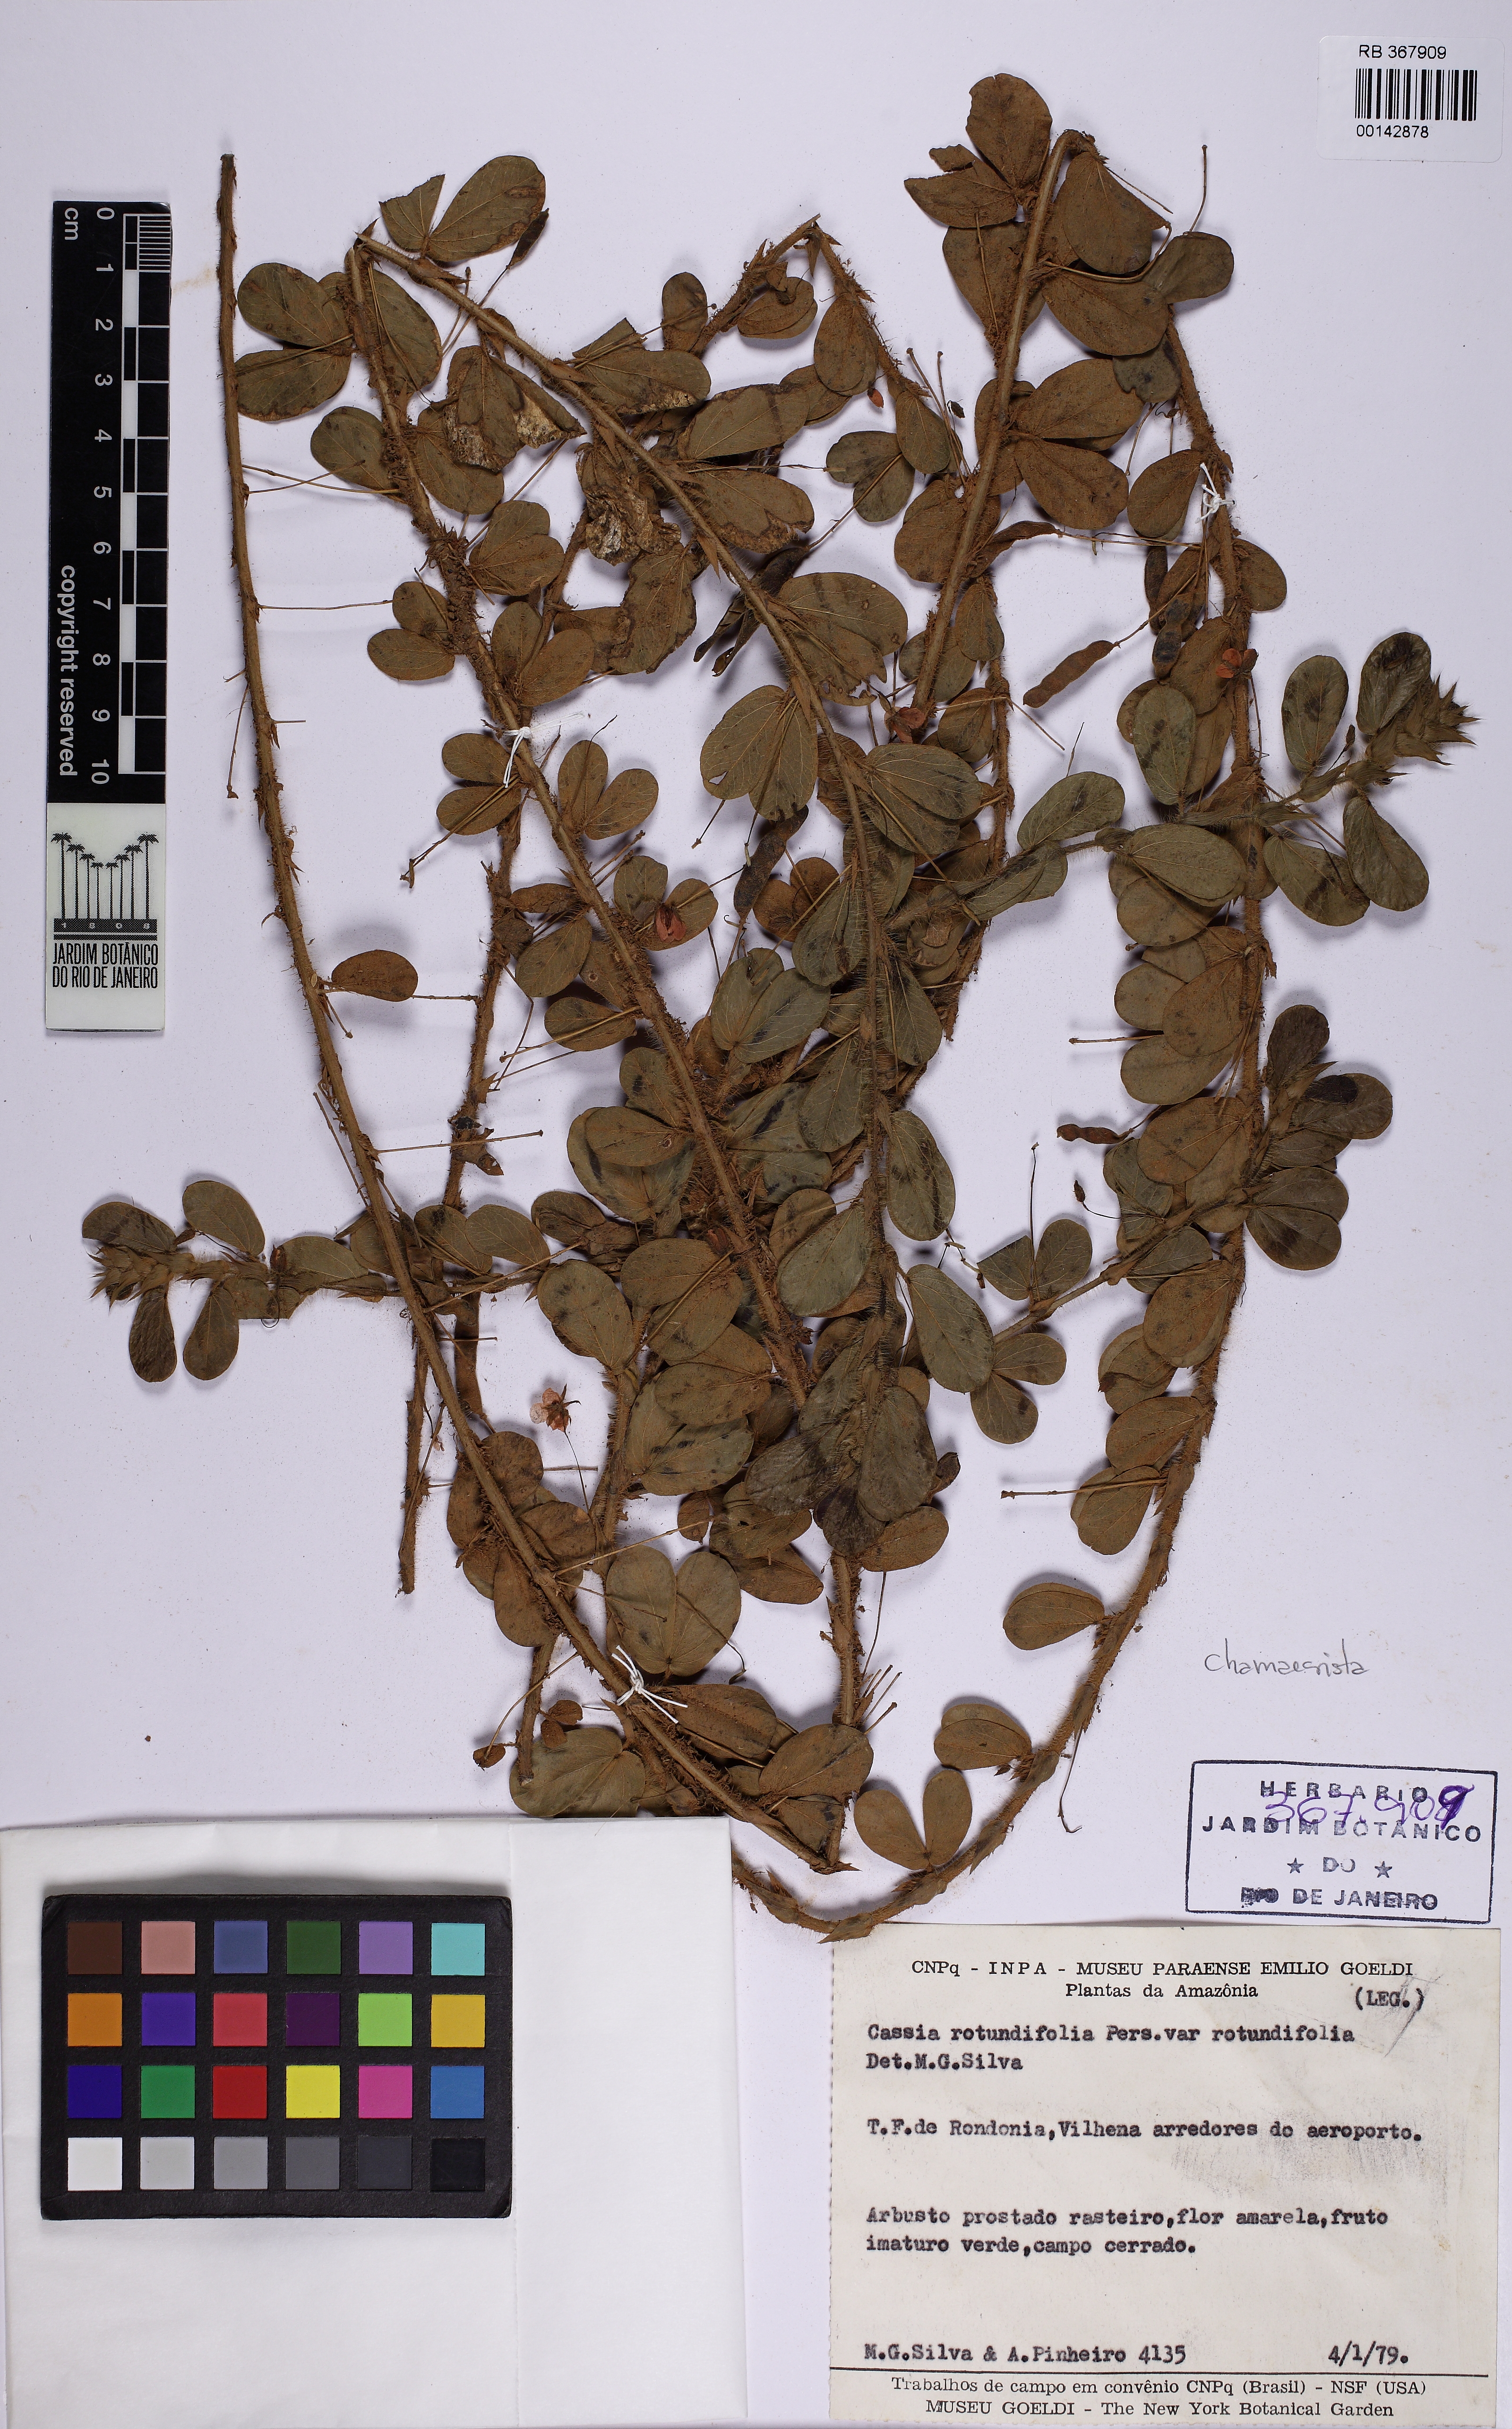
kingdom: Plantae
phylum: Tracheophyta
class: Magnoliopsida
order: Fabales
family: Fabaceae
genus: Chamaecrista
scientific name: Chamaecrista rotundifolia
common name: Round-leaf cassia
